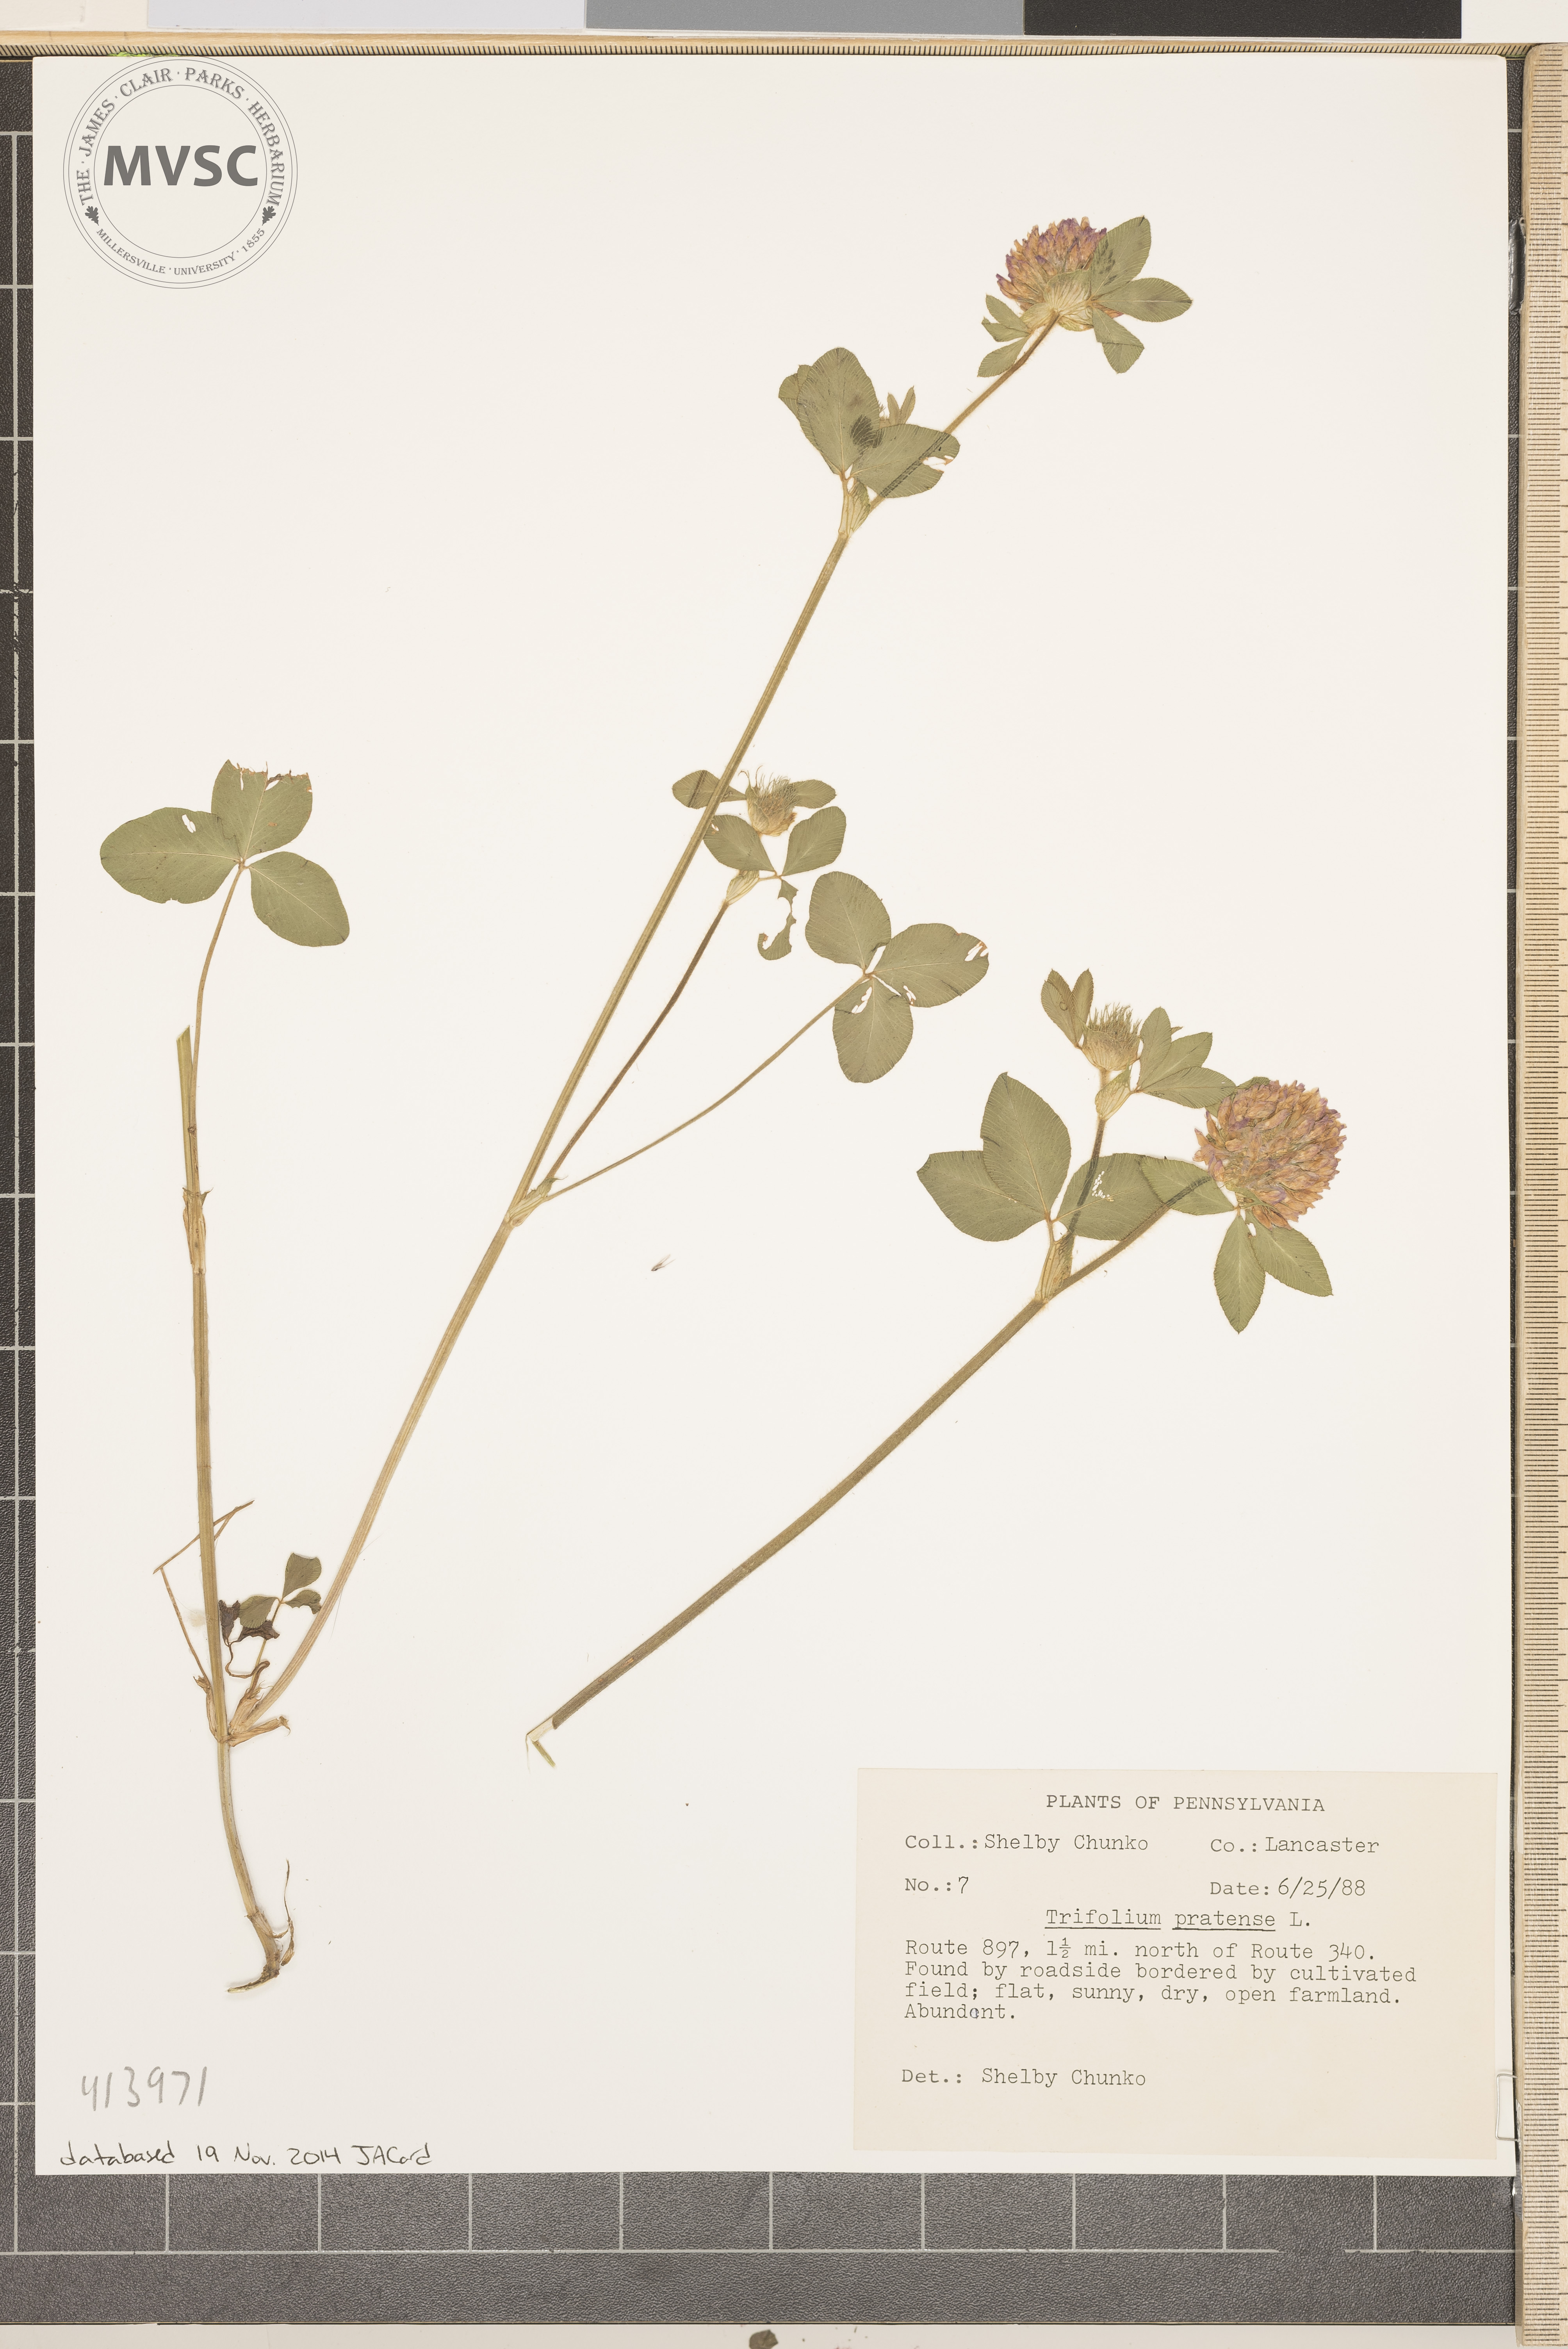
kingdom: Plantae
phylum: Tracheophyta
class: Magnoliopsida
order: Fabales
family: Fabaceae
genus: Trifolium
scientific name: Trifolium pratense
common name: Red clover
